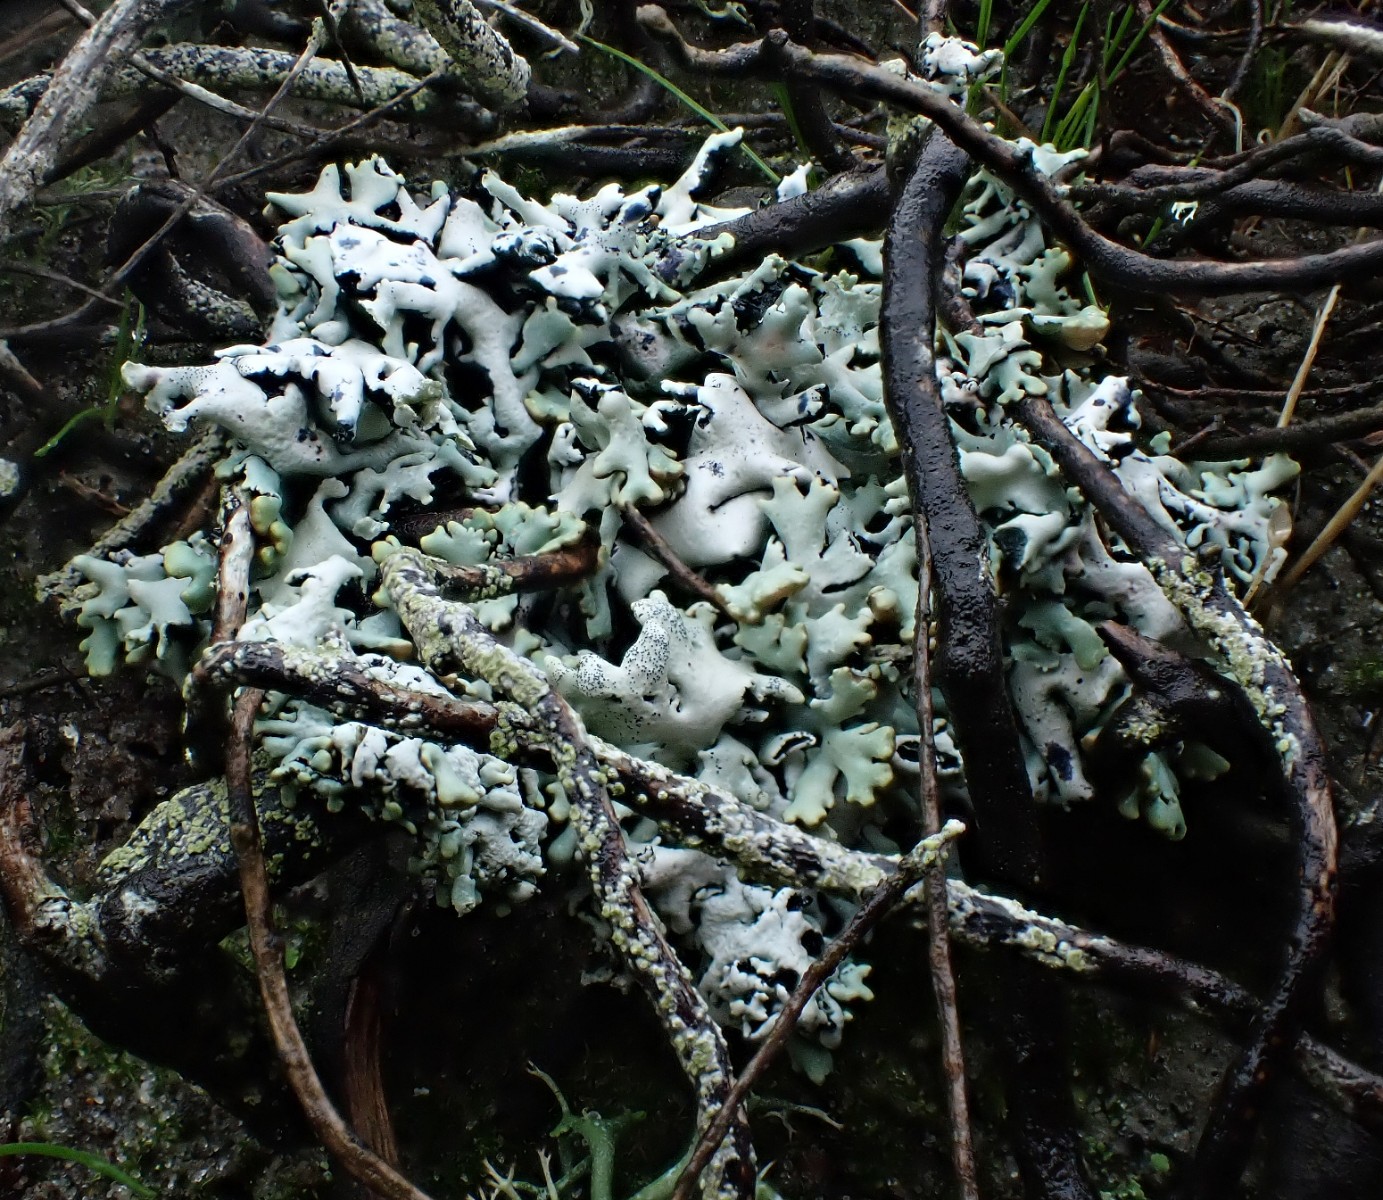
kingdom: Fungi
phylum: Ascomycota
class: Lecanoromycetes
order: Lecanorales
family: Parmeliaceae
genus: Hypogymnia
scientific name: Hypogymnia physodes
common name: almindelig kvistlav
